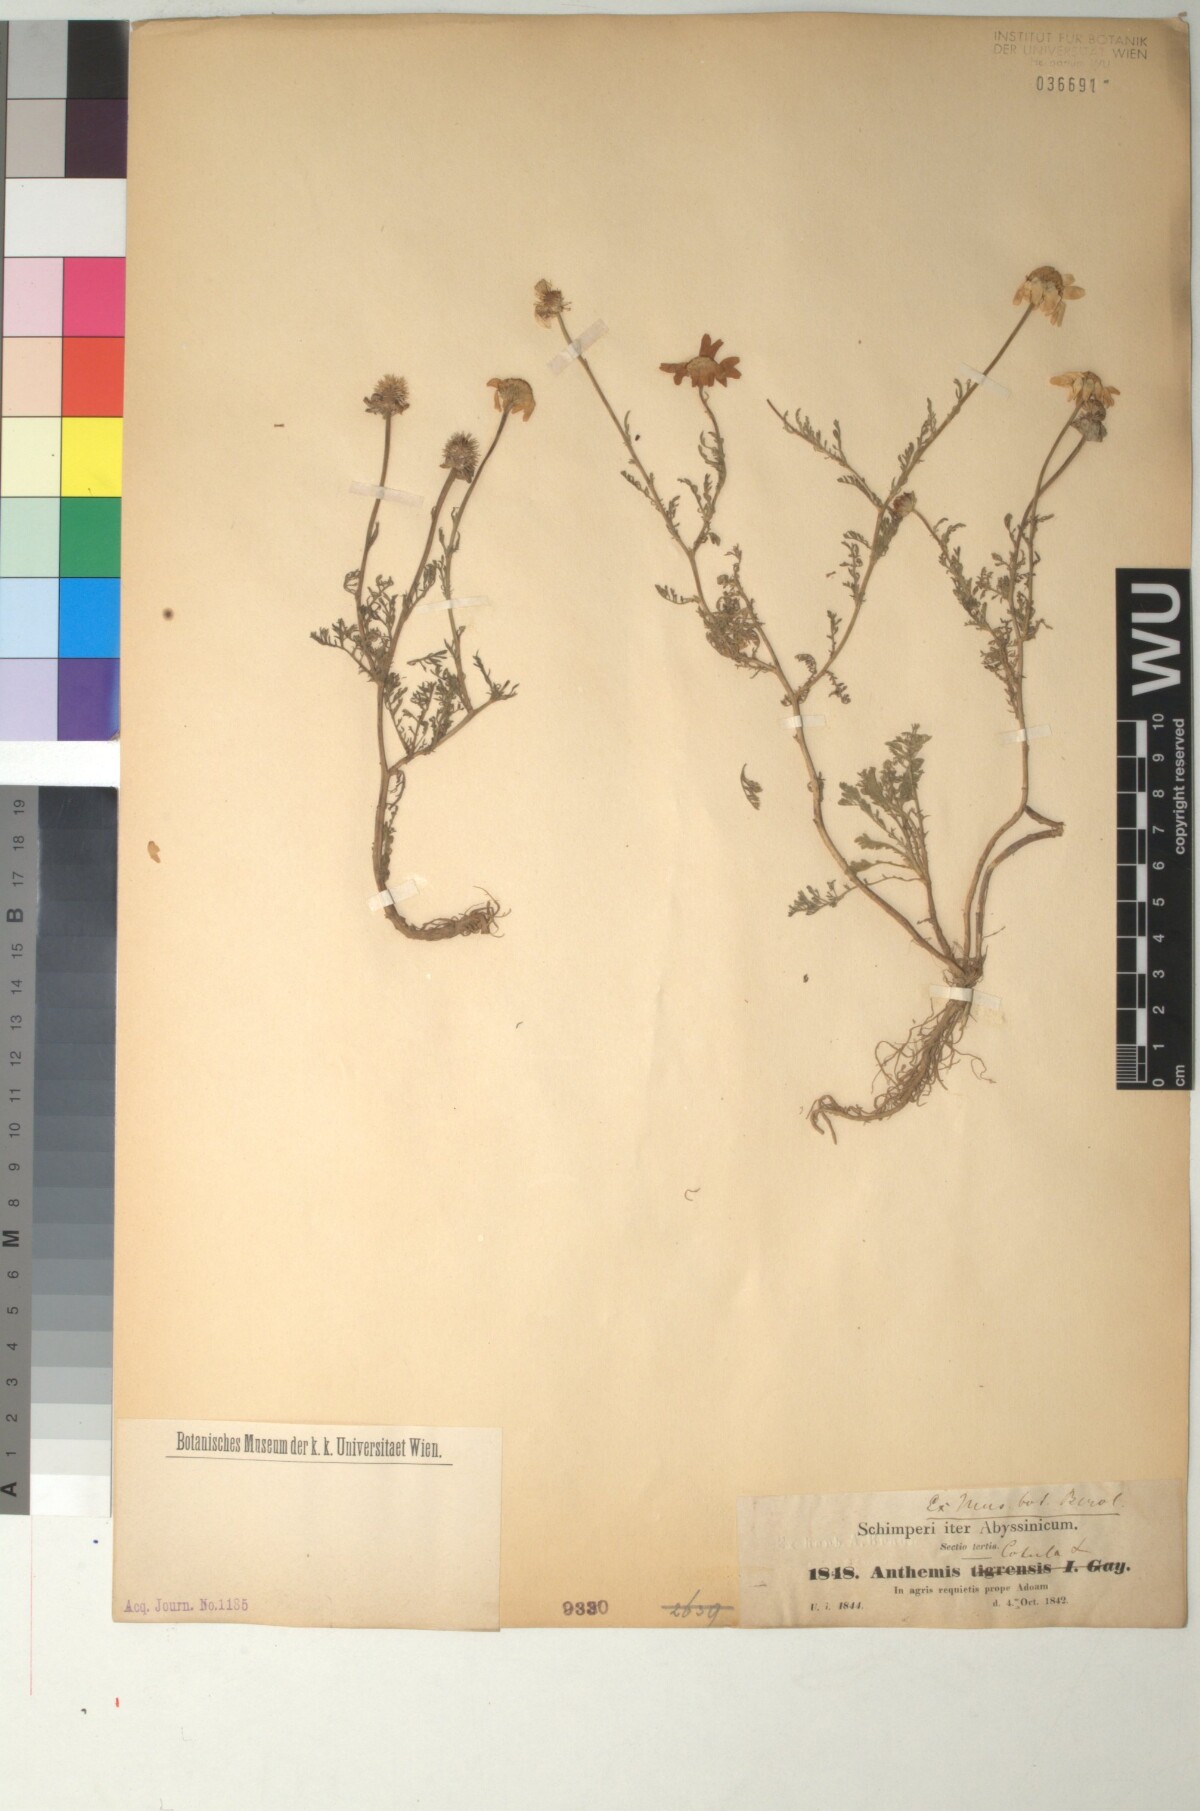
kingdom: Plantae
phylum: Tracheophyta
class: Magnoliopsida
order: Asterales
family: Asteraceae
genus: Anthemis
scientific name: Anthemis tigreensis
